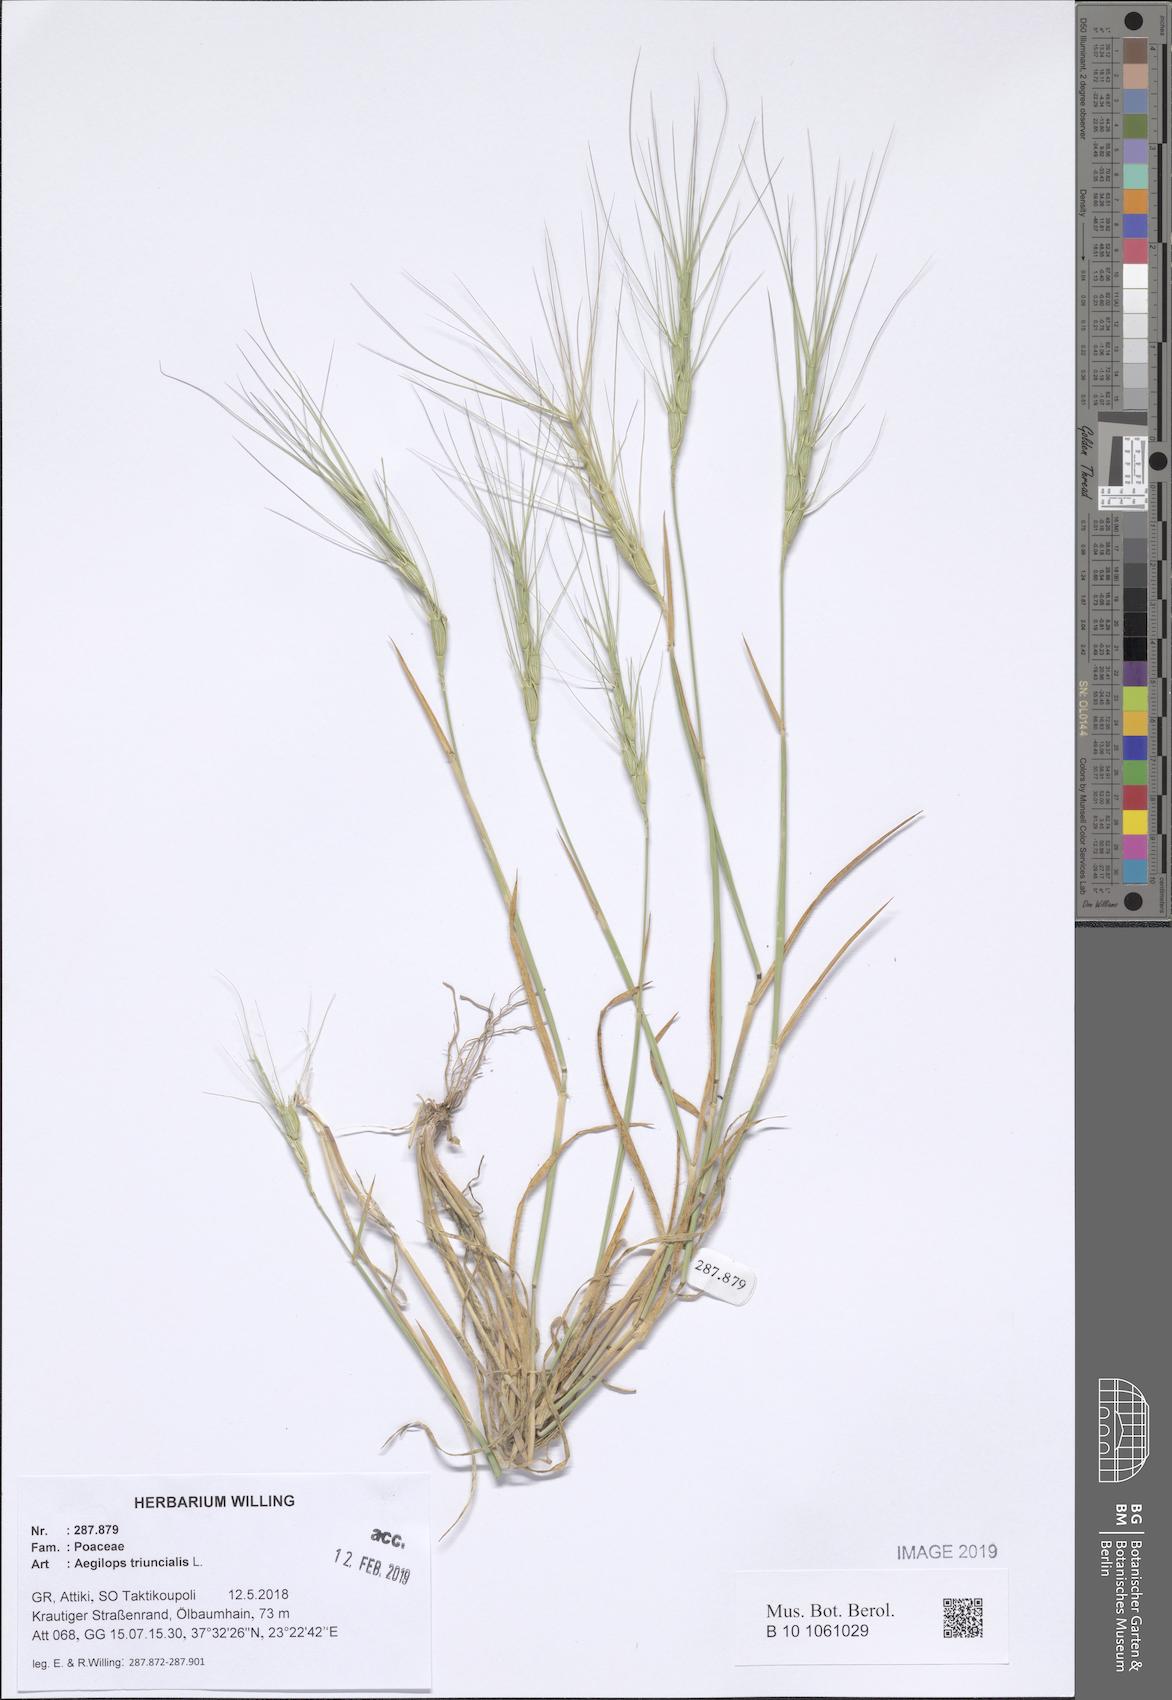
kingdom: Plantae
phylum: Tracheophyta
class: Liliopsida
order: Poales
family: Poaceae
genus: Aegilops
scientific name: Aegilops triuncialis
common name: Barb goat grass
